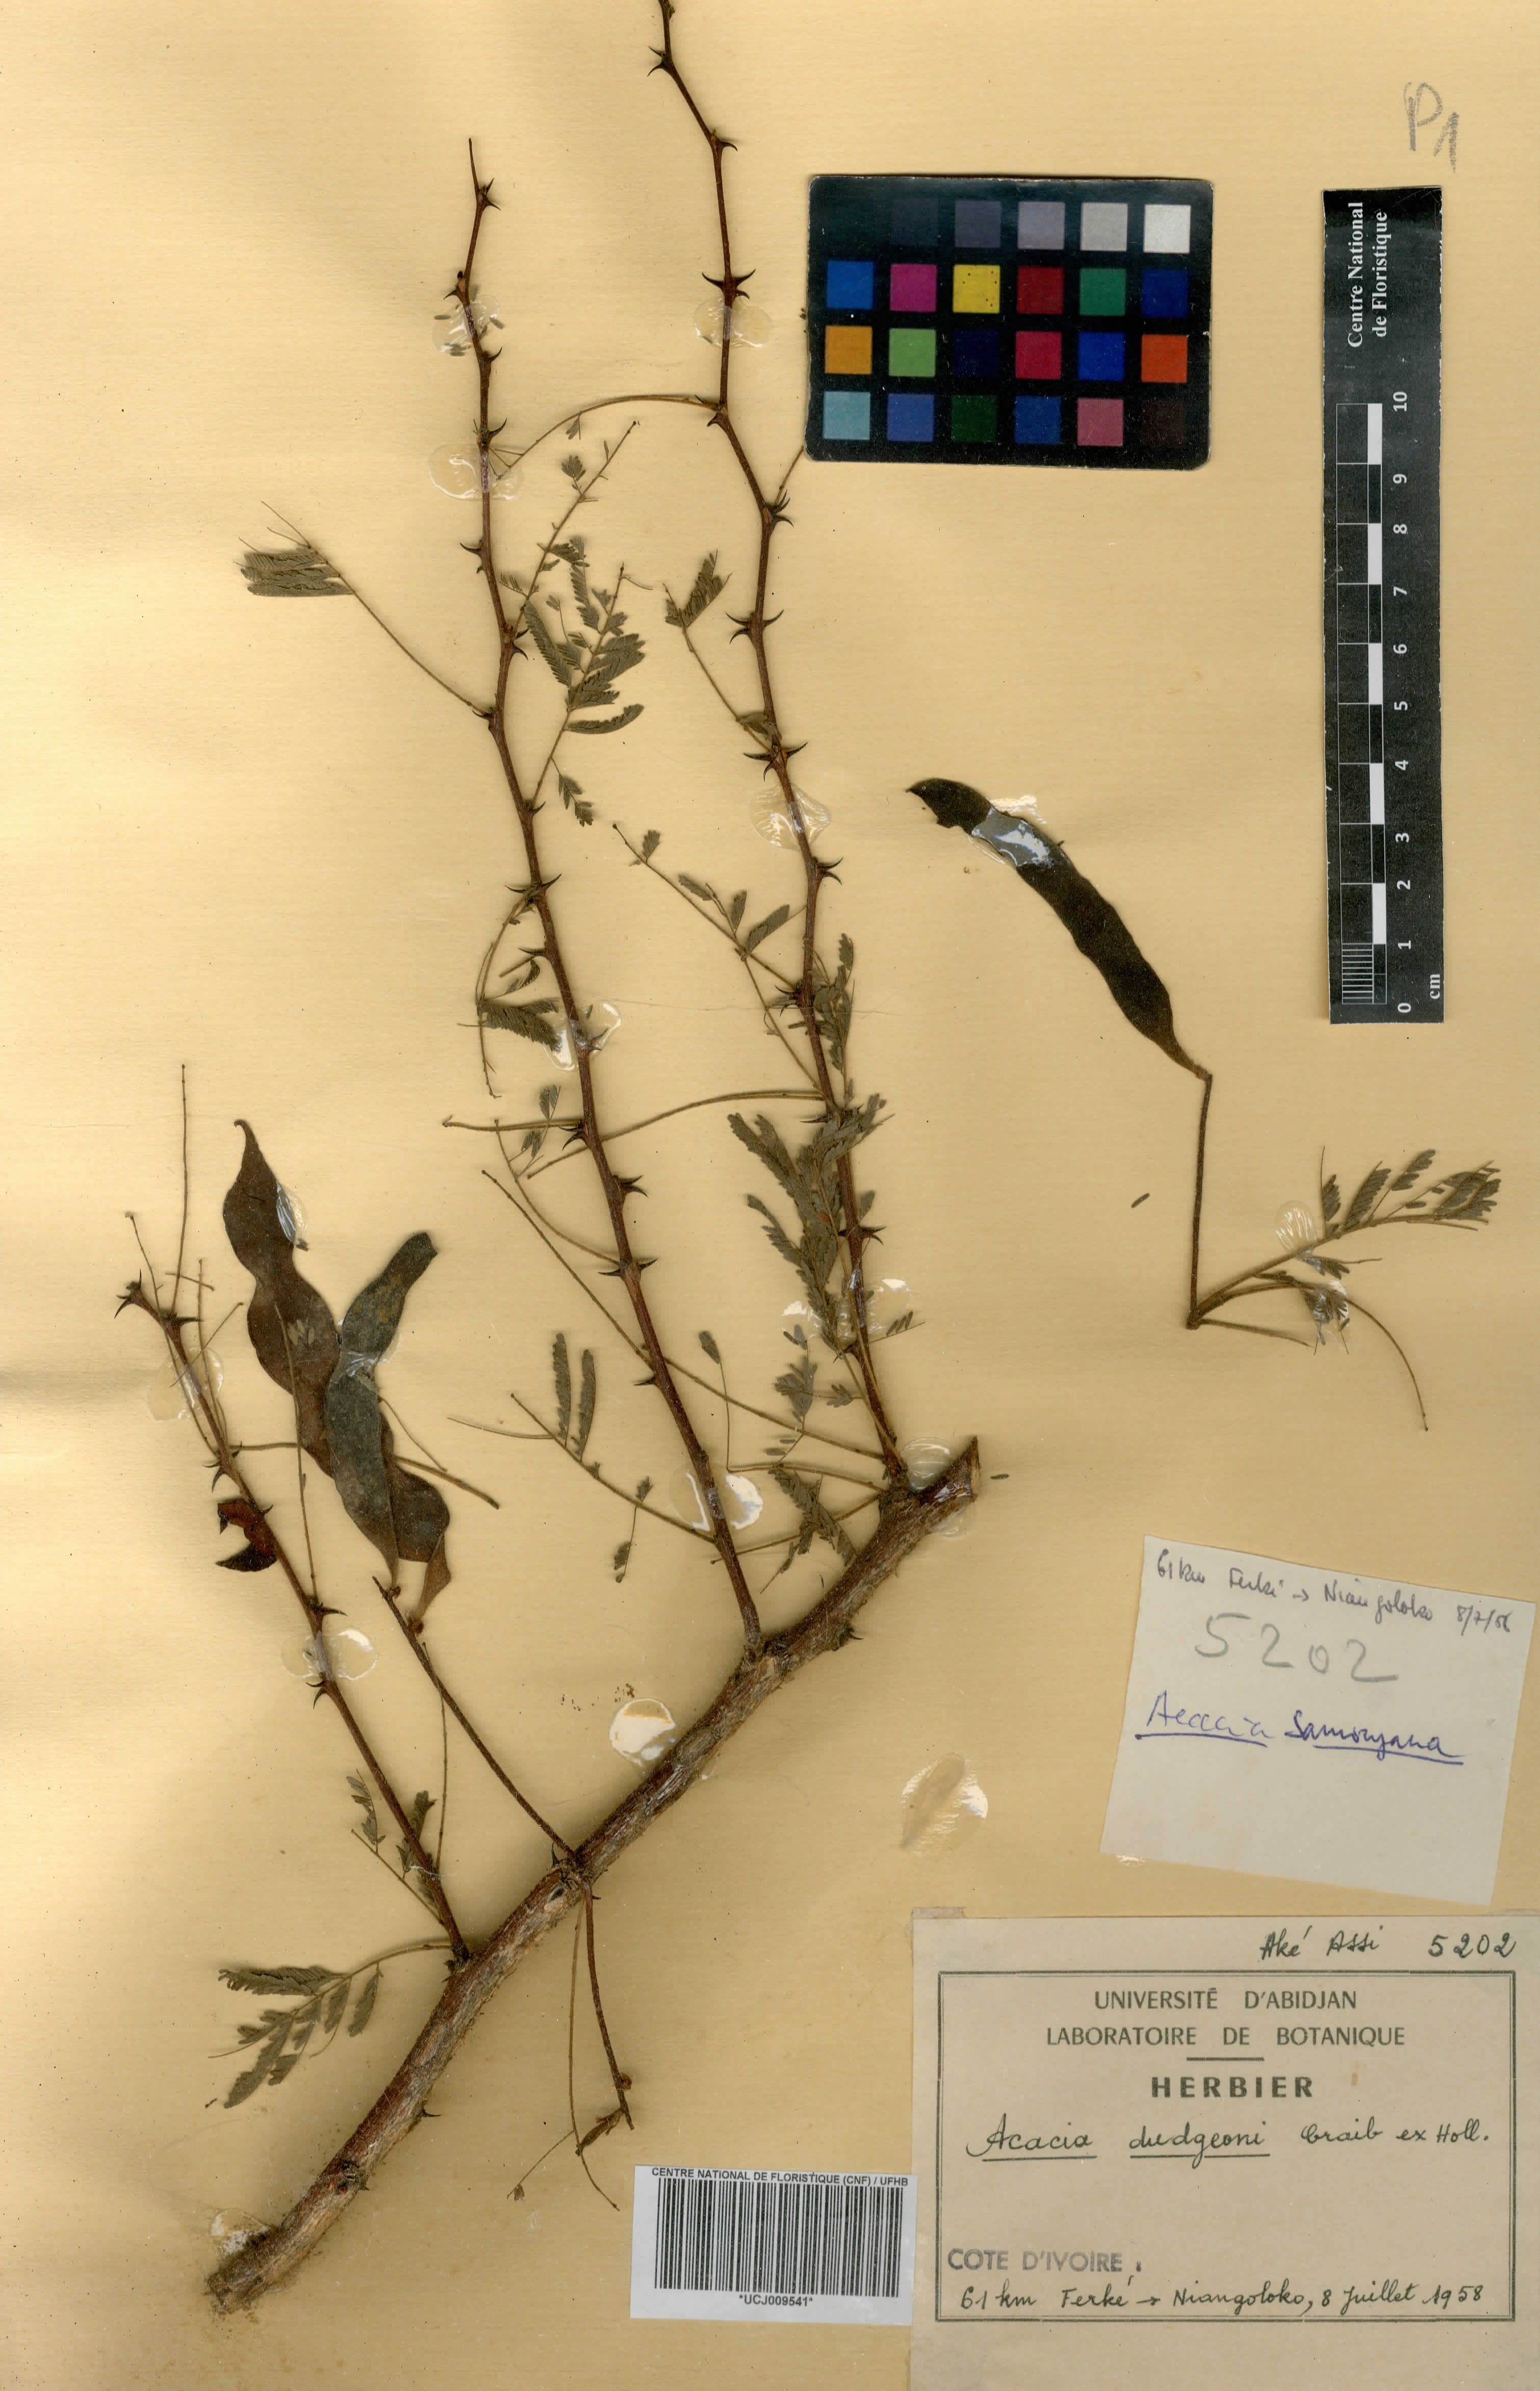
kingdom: Plantae
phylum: Tracheophyta
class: Magnoliopsida
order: Fabales
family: Fabaceae
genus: Senegalia
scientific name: Senegalia dudgeonii
